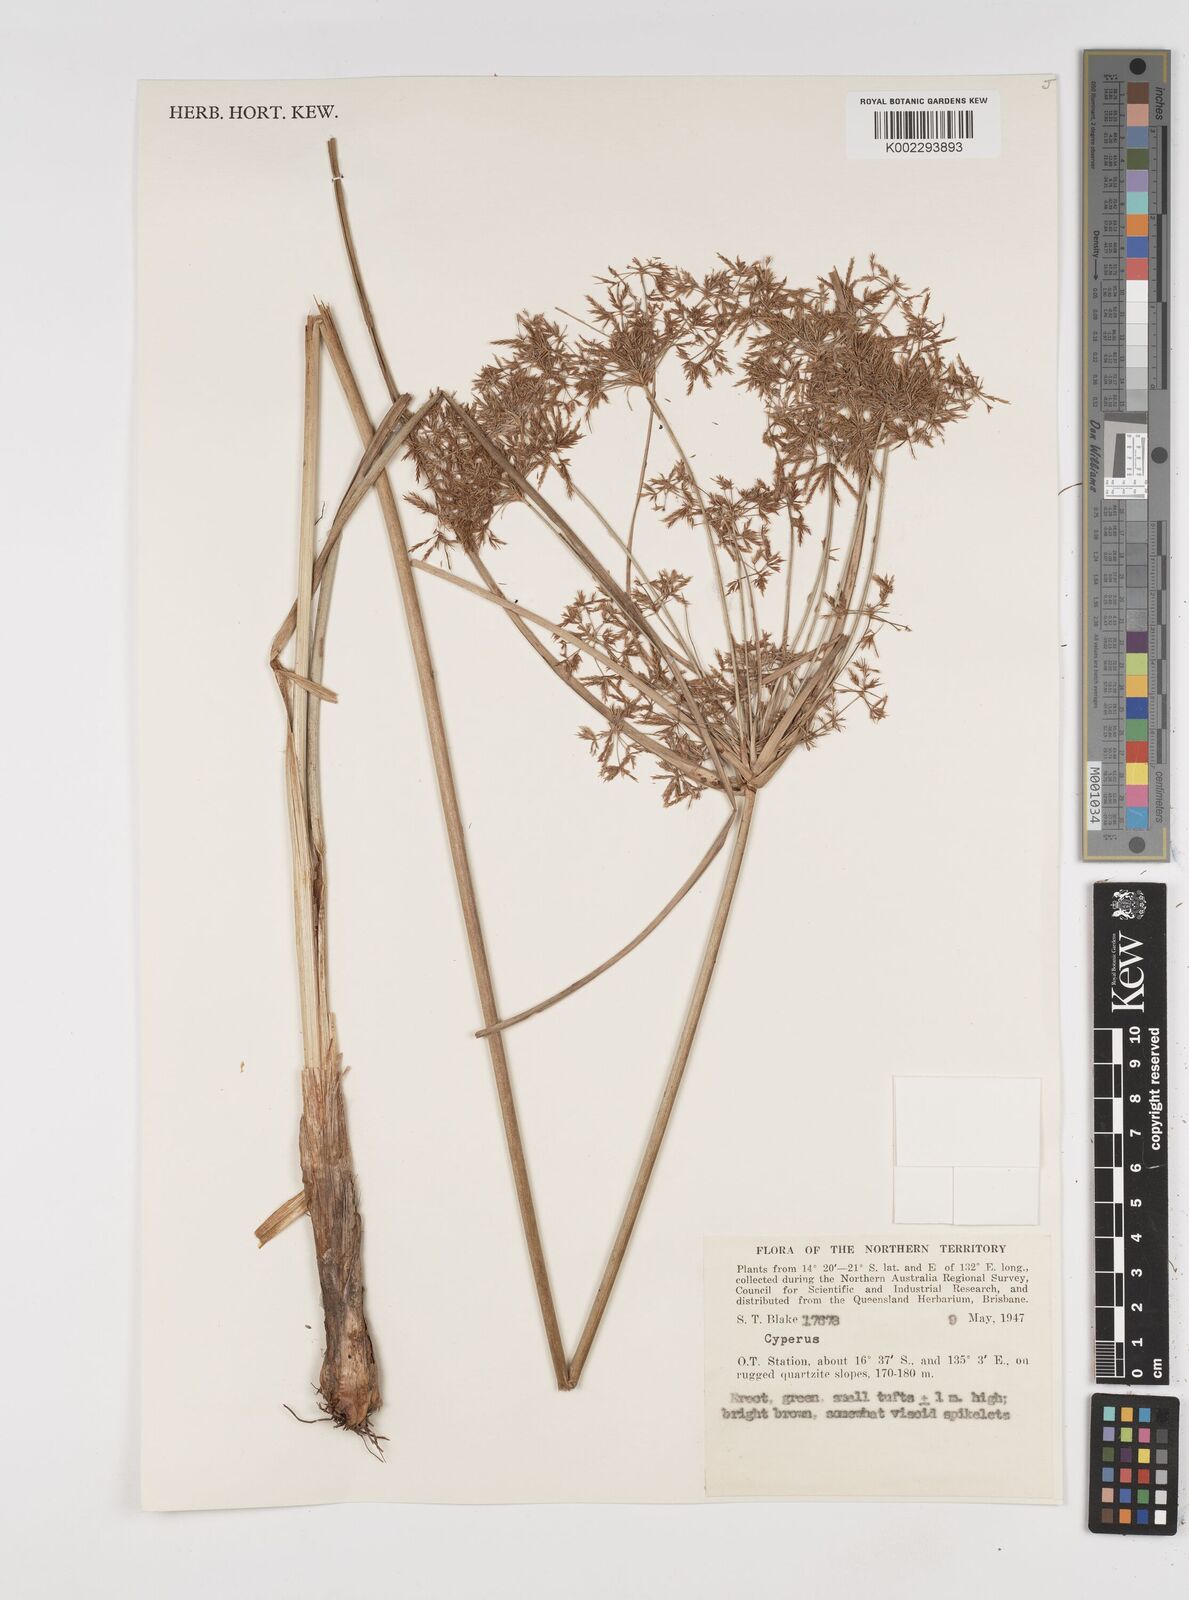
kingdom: Plantae
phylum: Tracheophyta
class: Liliopsida
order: Poales
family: Cyperaceae
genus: Cyperus
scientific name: Cyperus
